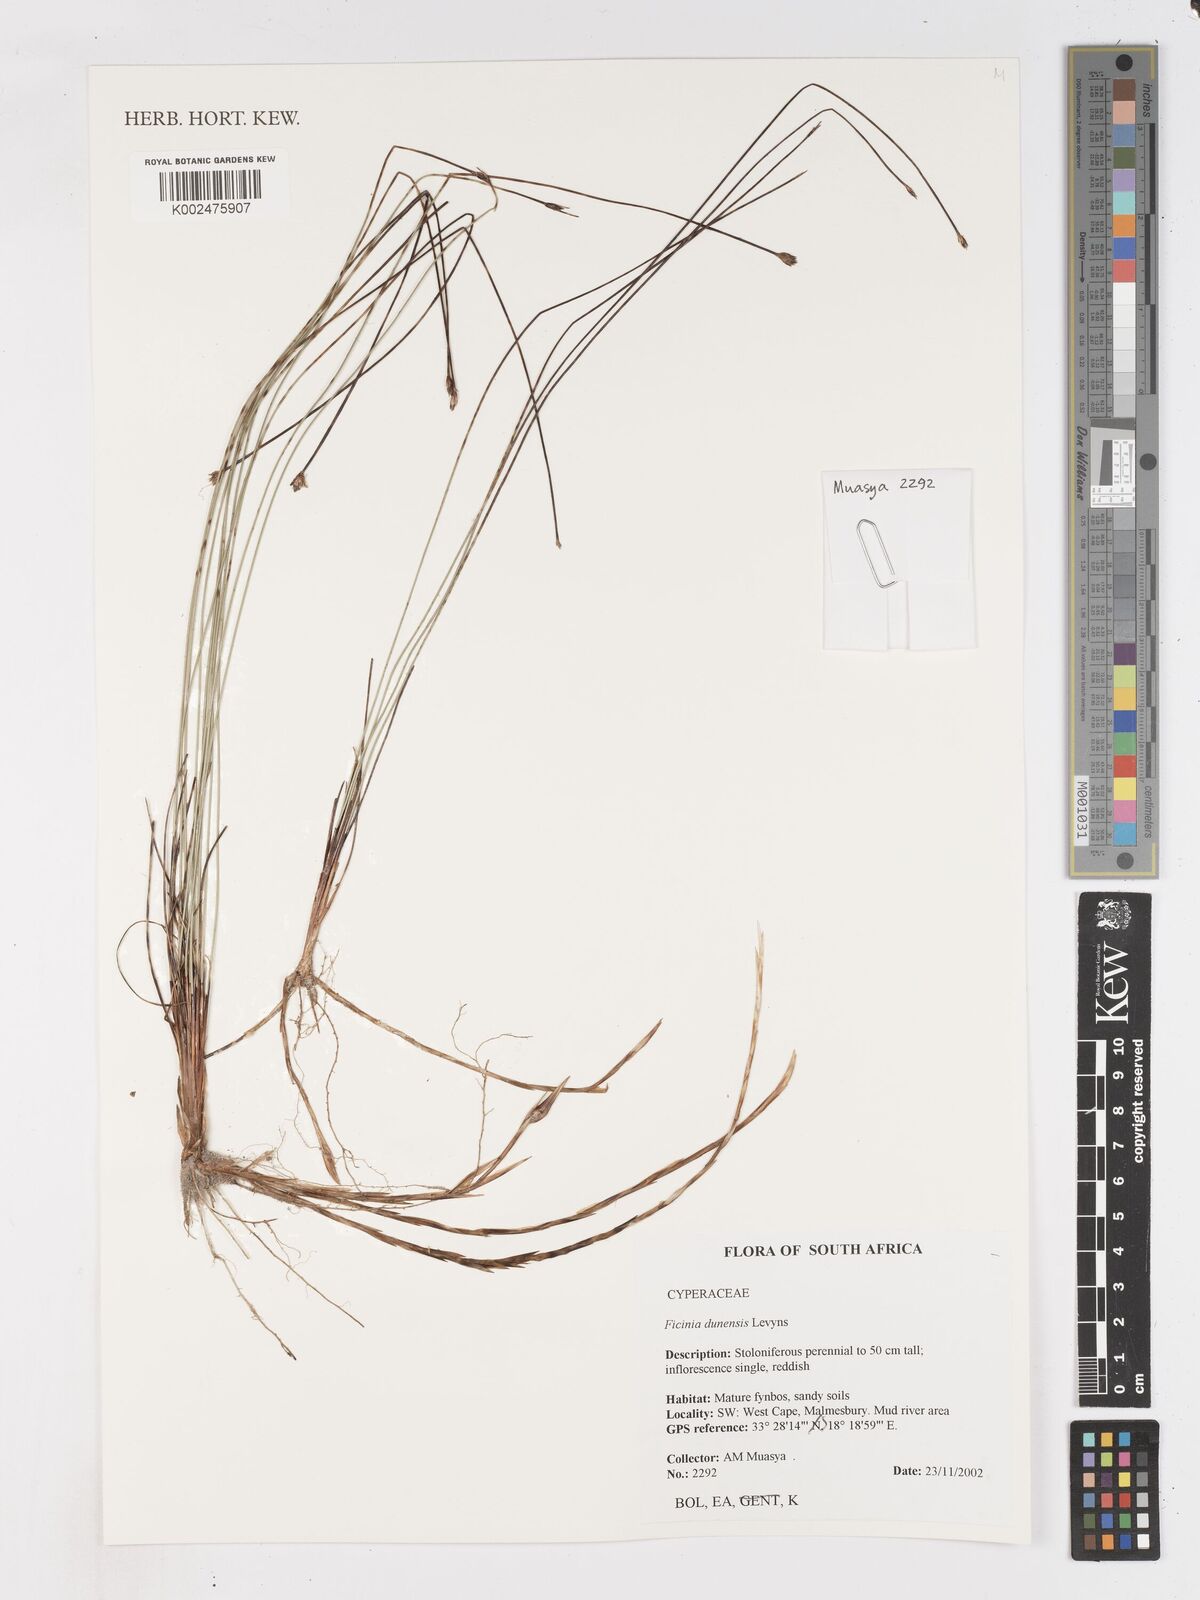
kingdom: Plantae
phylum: Tracheophyta
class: Liliopsida
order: Poales
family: Cyperaceae
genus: Ficinia
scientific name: Ficinia dunensis
